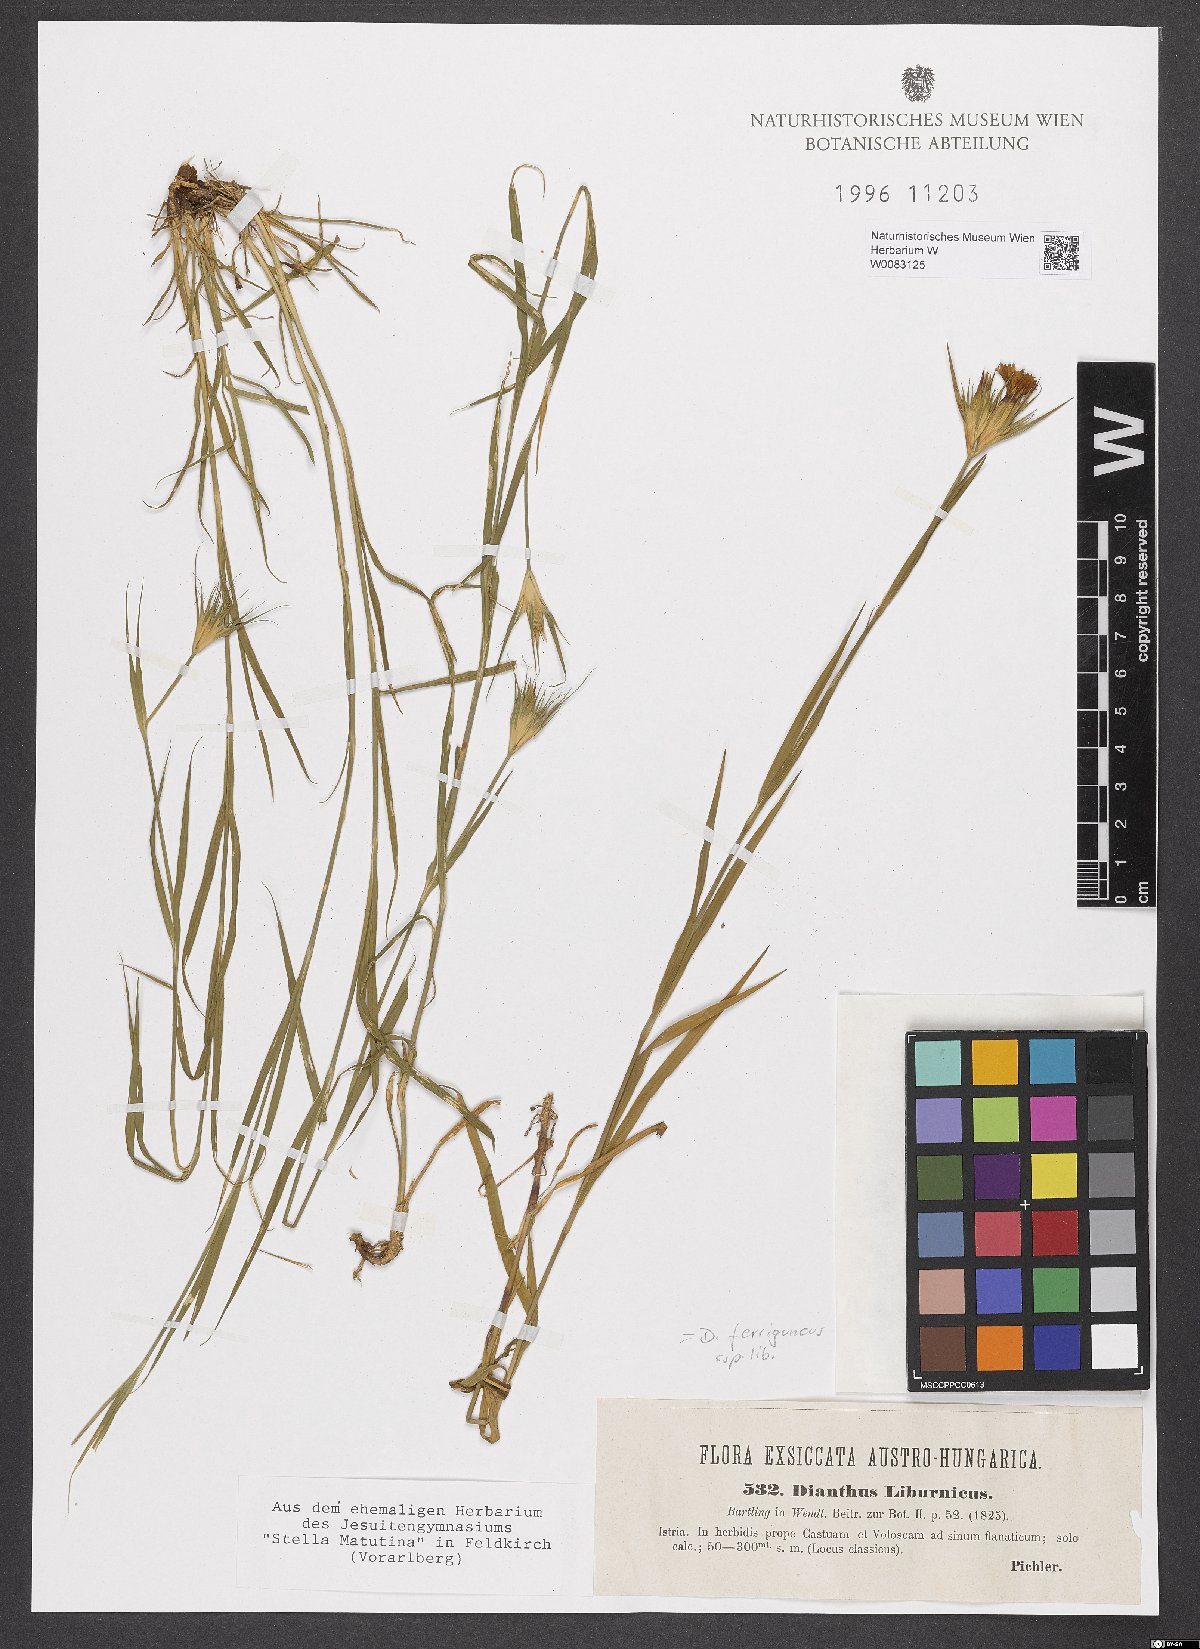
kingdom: Plantae
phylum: Tracheophyta
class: Magnoliopsida
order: Caryophyllales
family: Caryophyllaceae
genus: Dianthus
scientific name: Dianthus balbisii
